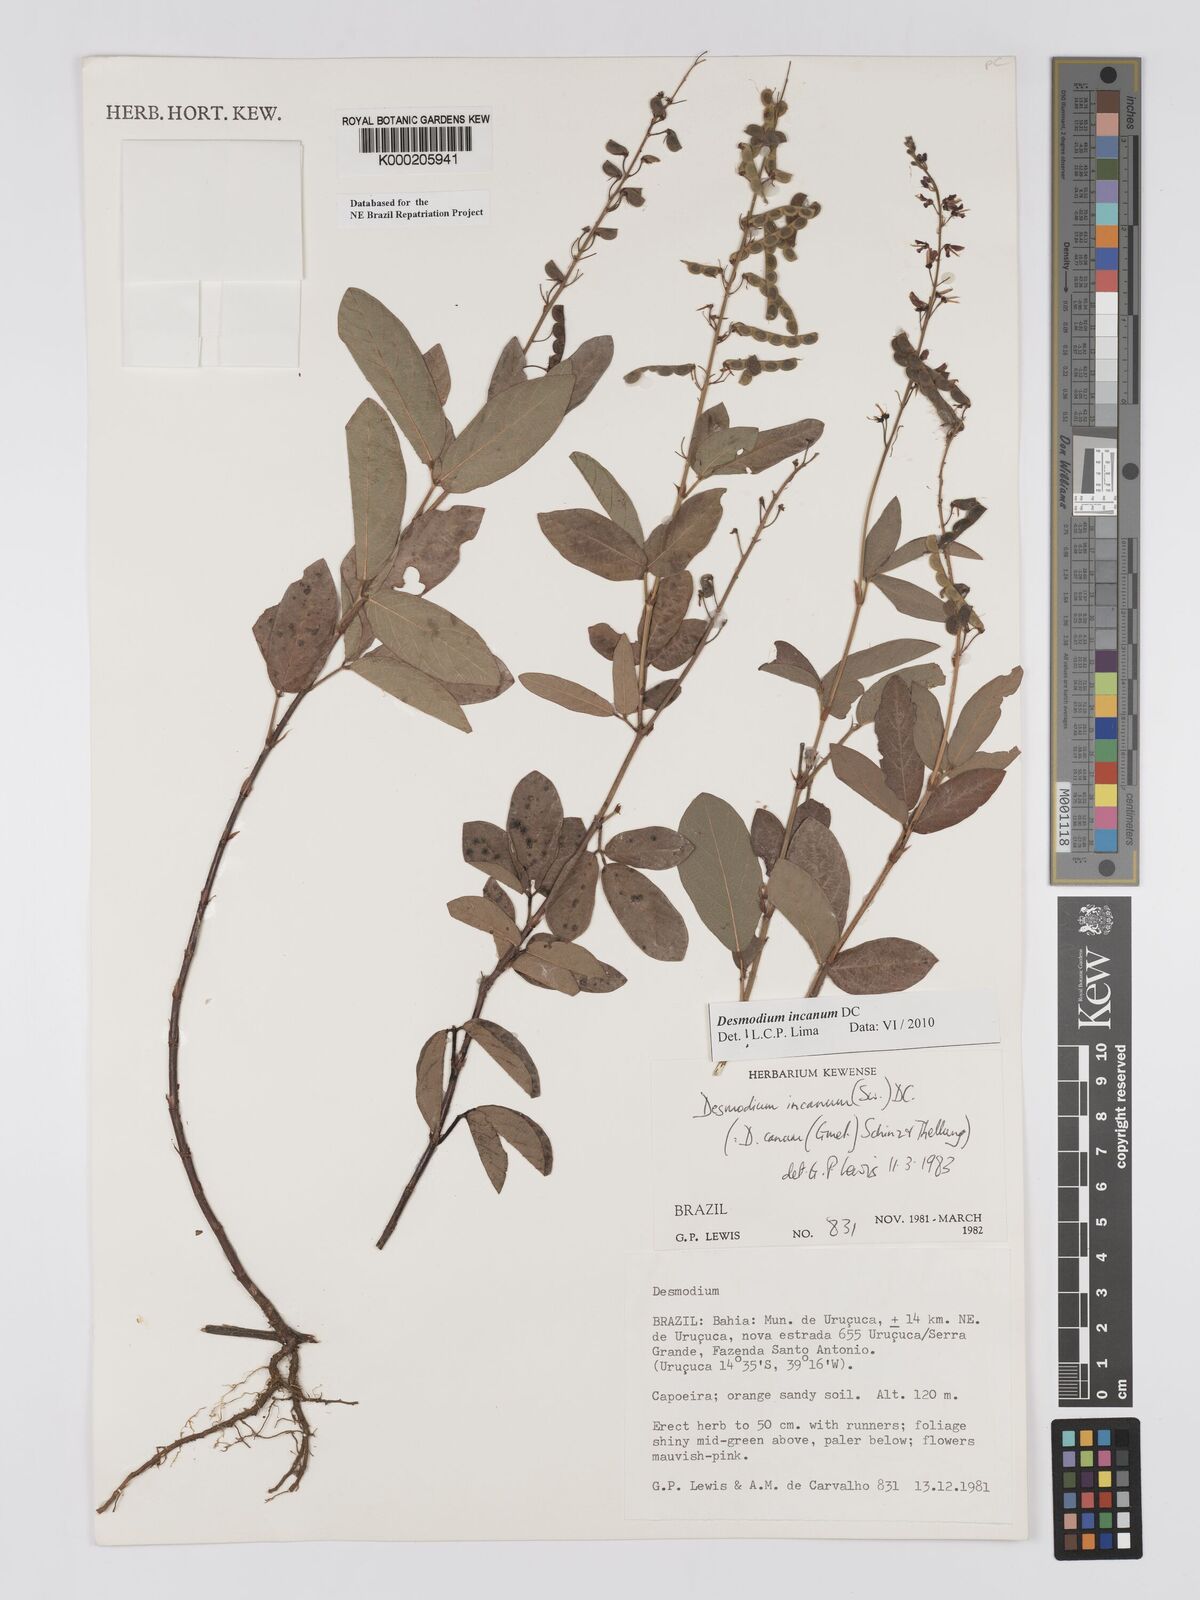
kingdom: Plantae
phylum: Tracheophyta
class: Magnoliopsida
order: Fabales
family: Fabaceae
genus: Desmodium
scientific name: Desmodium incanum
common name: Tickclover
